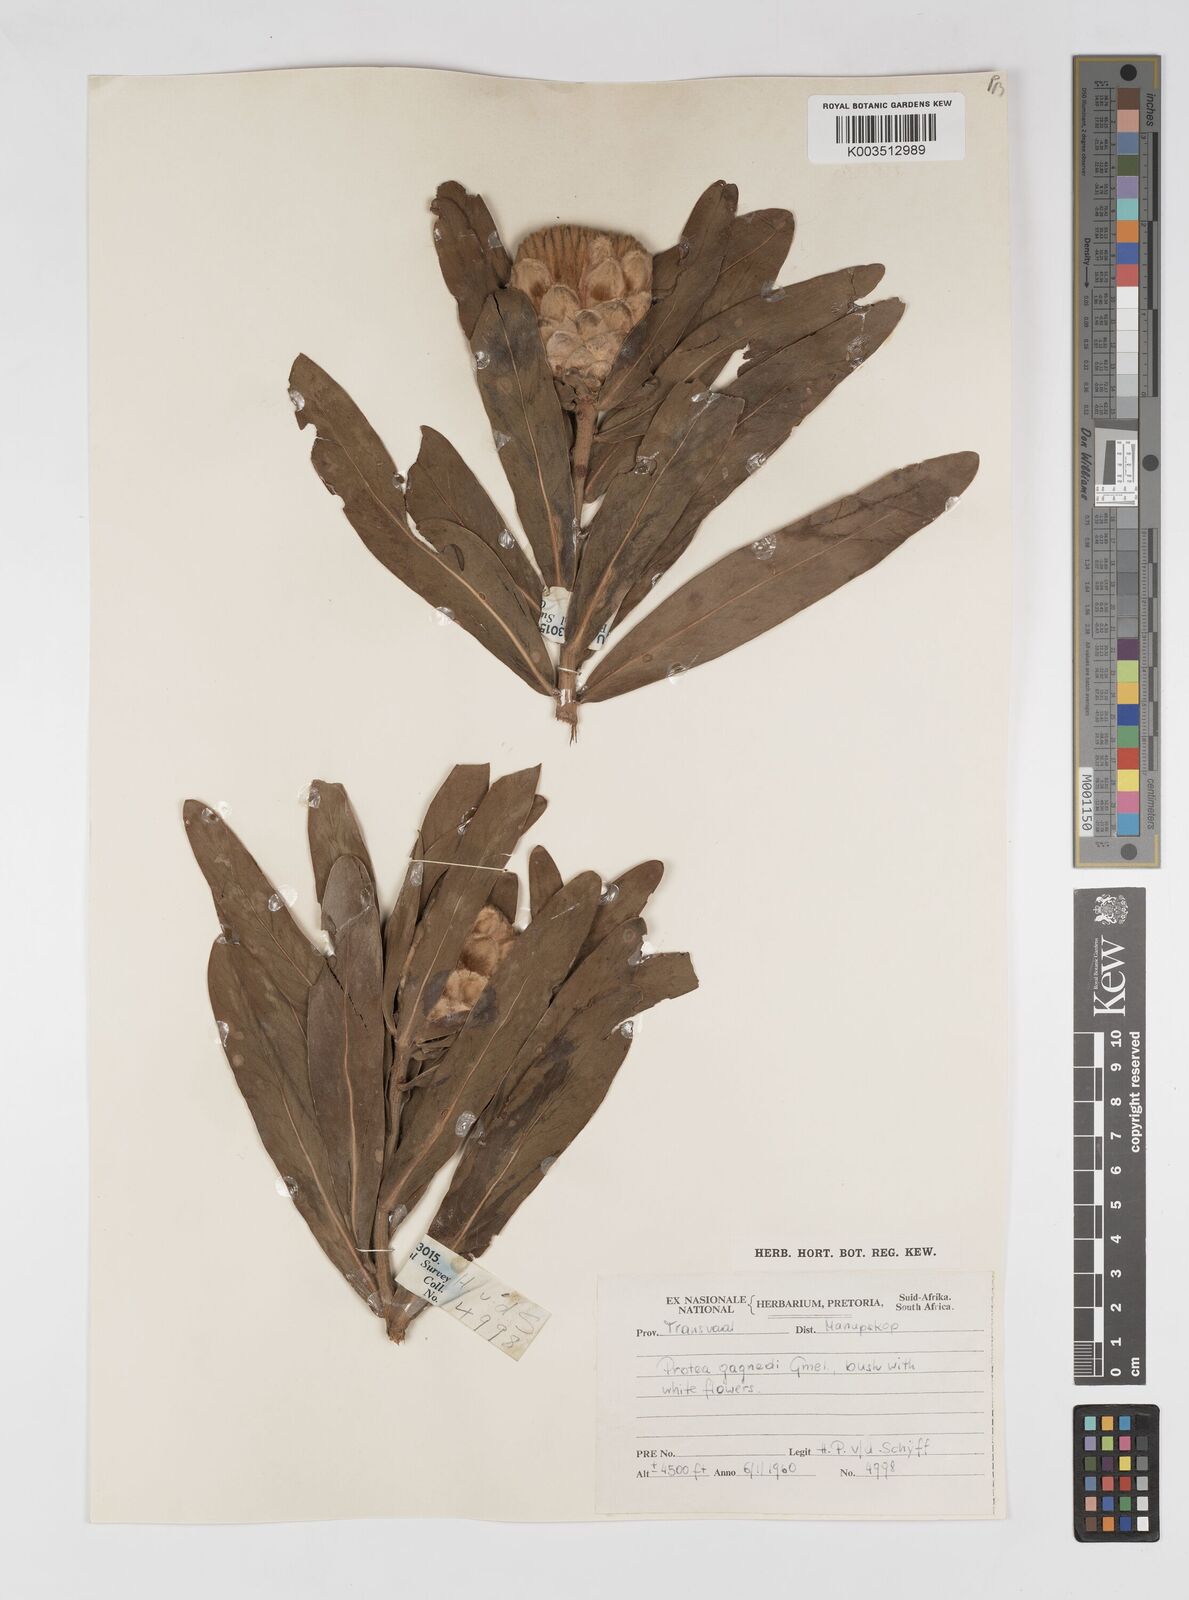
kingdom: Plantae
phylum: Tracheophyta
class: Magnoliopsida
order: Proteales
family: Proteaceae
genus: Protea
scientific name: Protea gaguedi
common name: African protea
